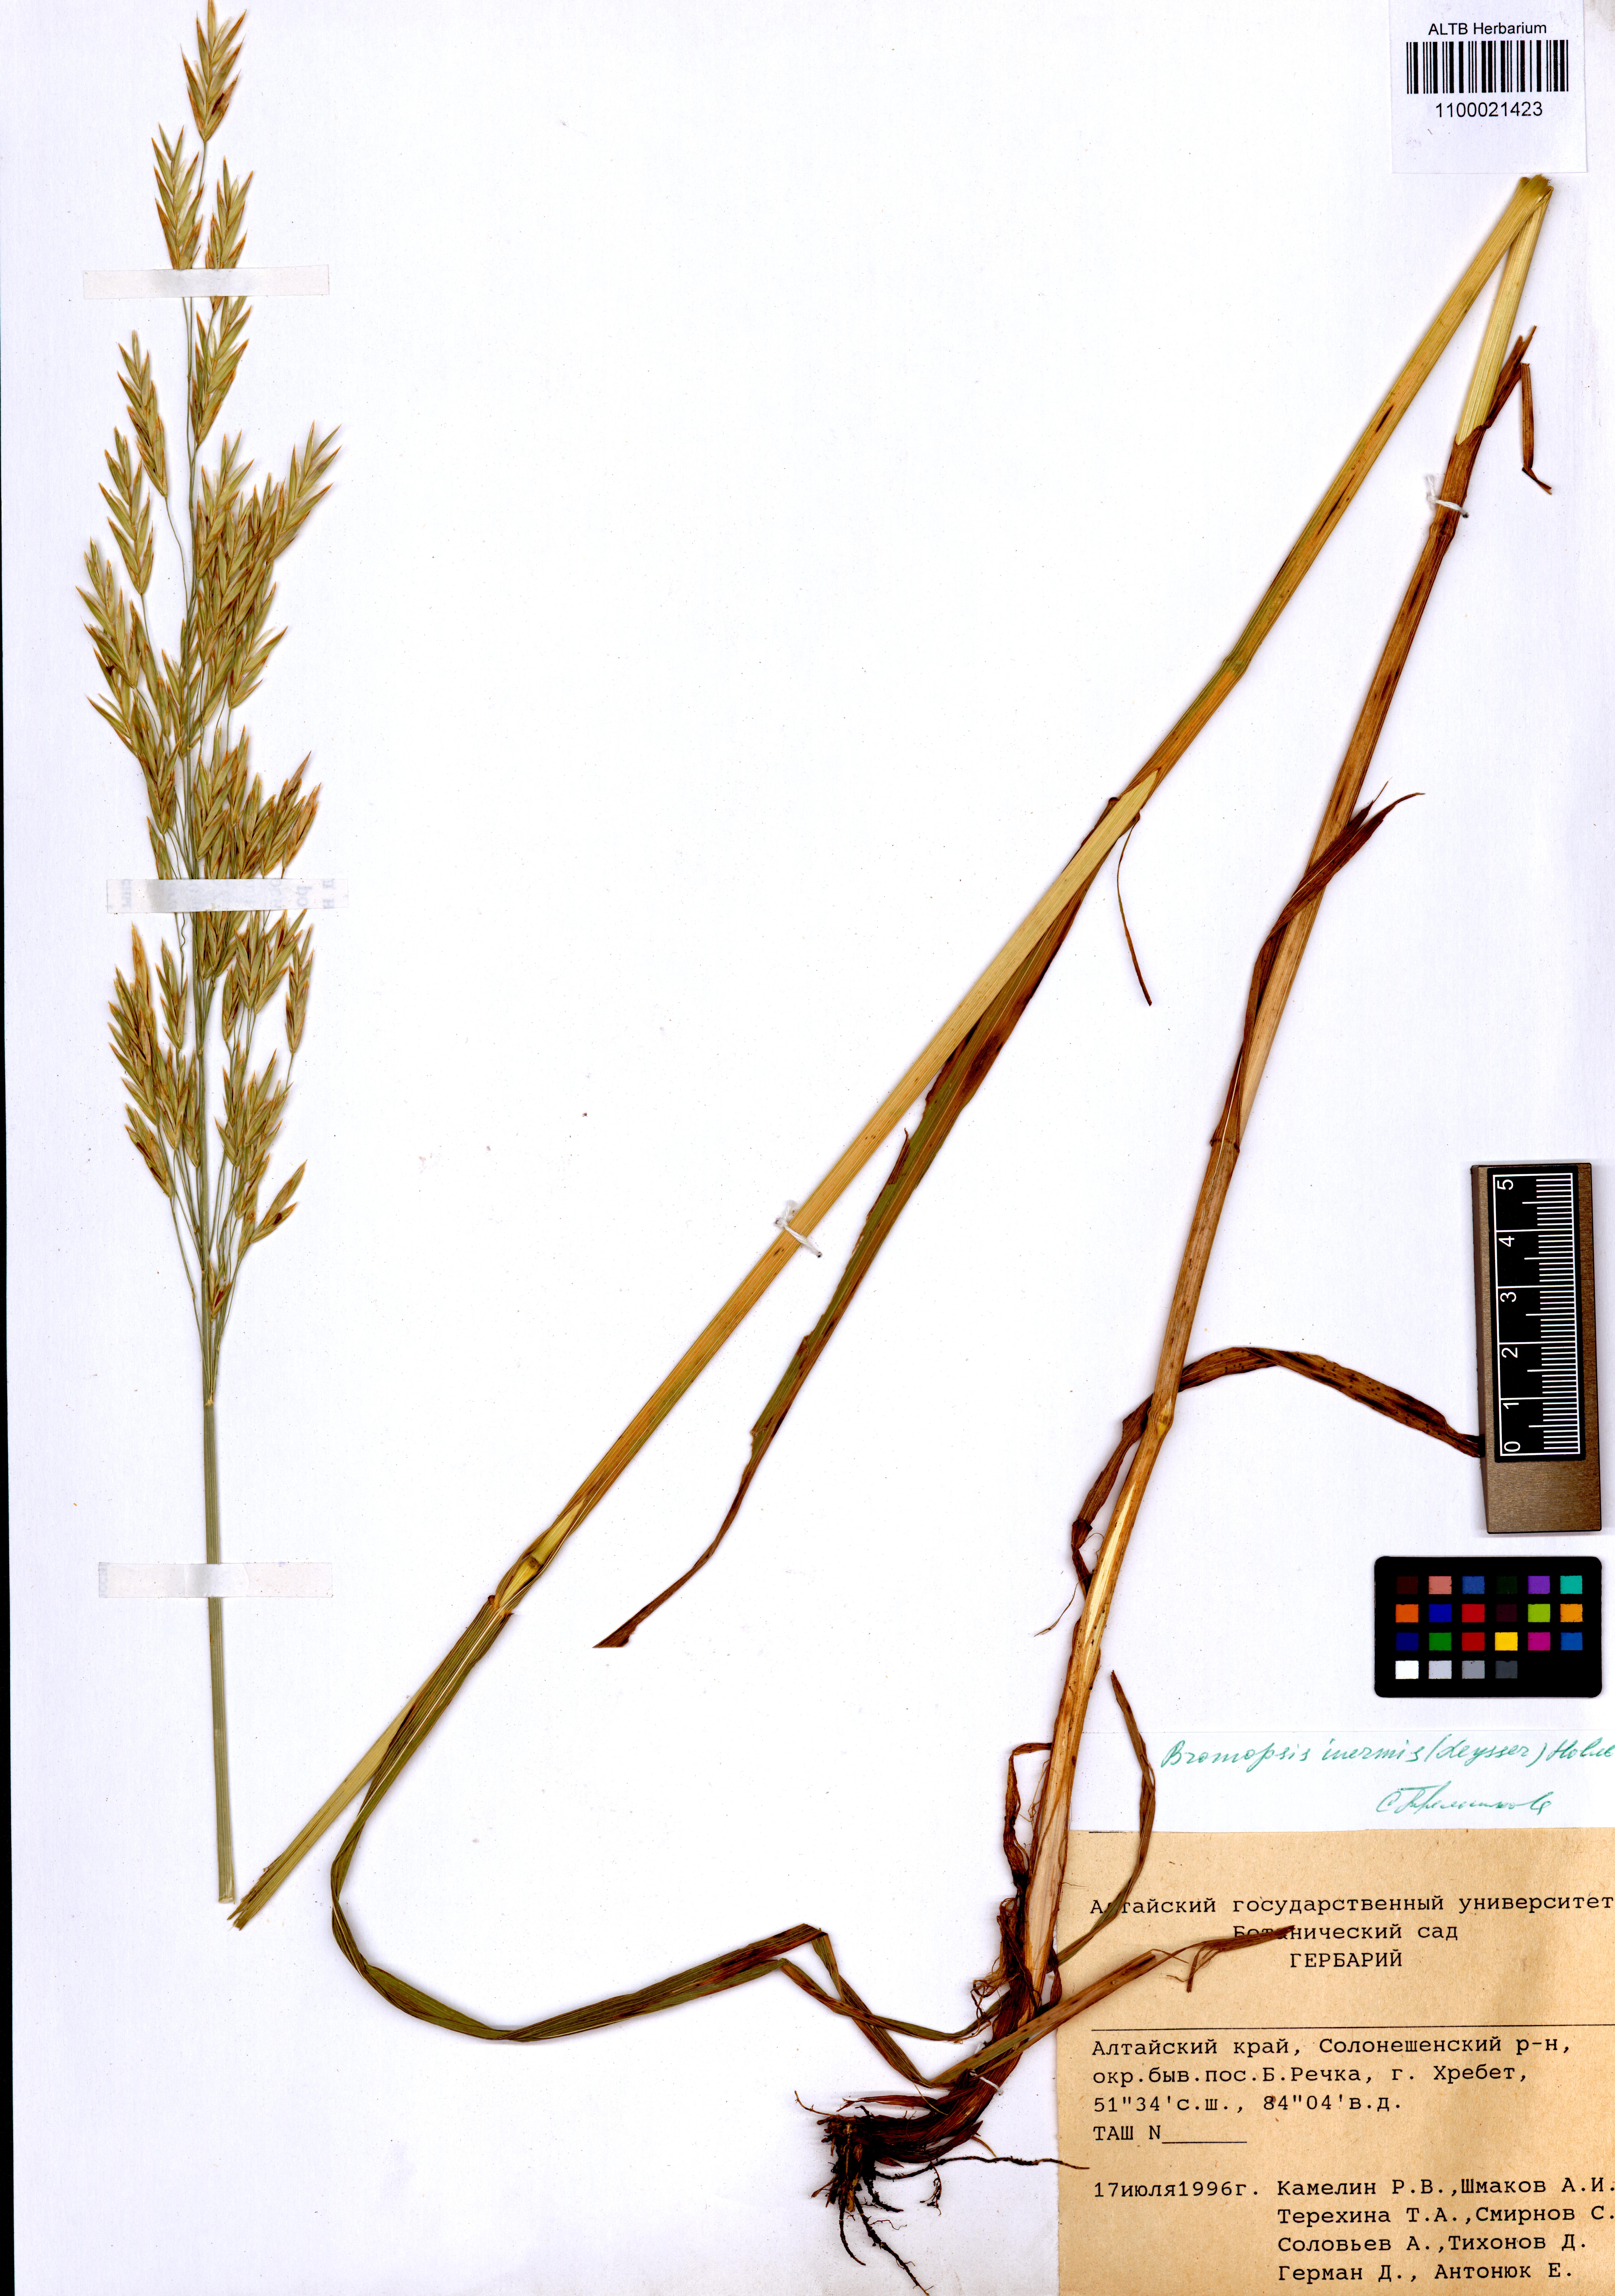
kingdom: Plantae
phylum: Tracheophyta
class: Liliopsida
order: Poales
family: Poaceae
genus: Bromus
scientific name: Bromus inermis
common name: Smooth brome
